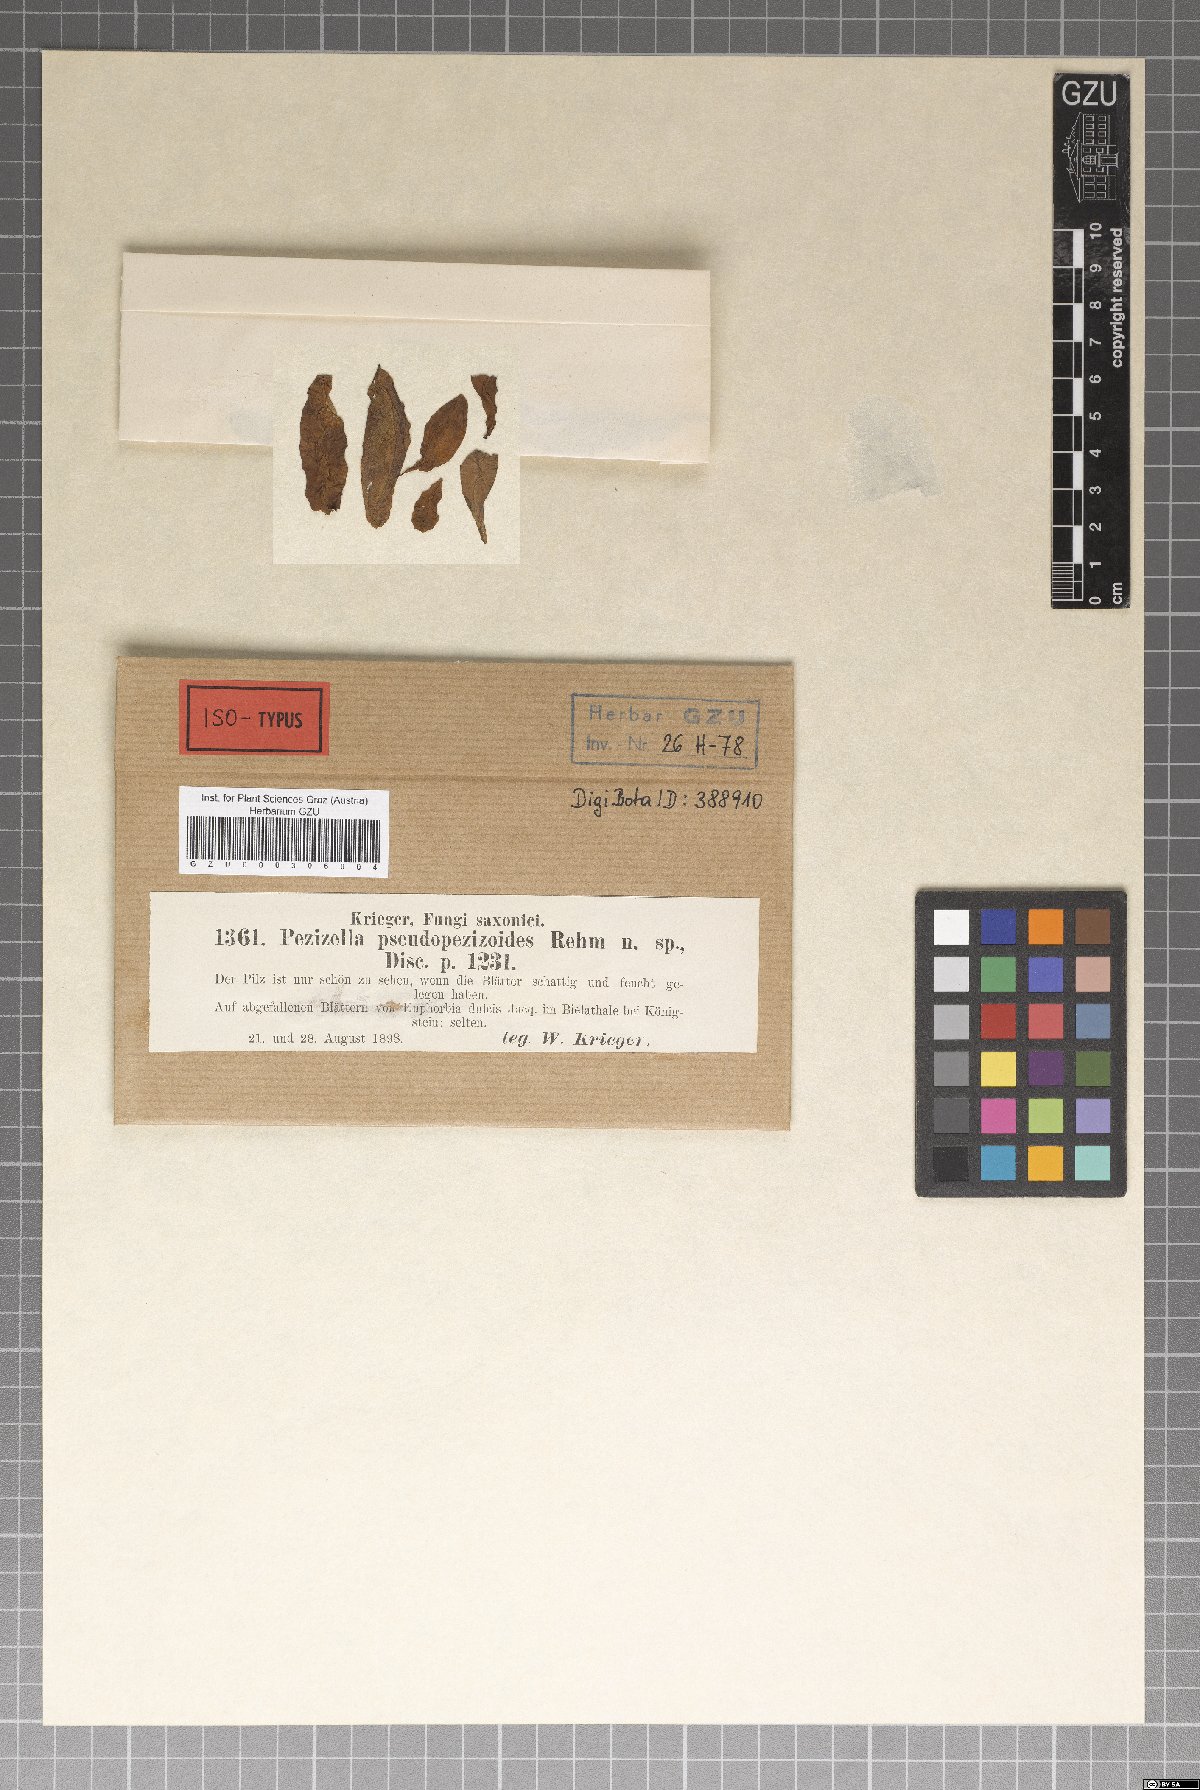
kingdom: Fungi
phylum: Ascomycota
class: Leotiomycetes
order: Helotiales
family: Hyaloscyphaceae
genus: Urceolella
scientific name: Urceolella pseudopezizoides
